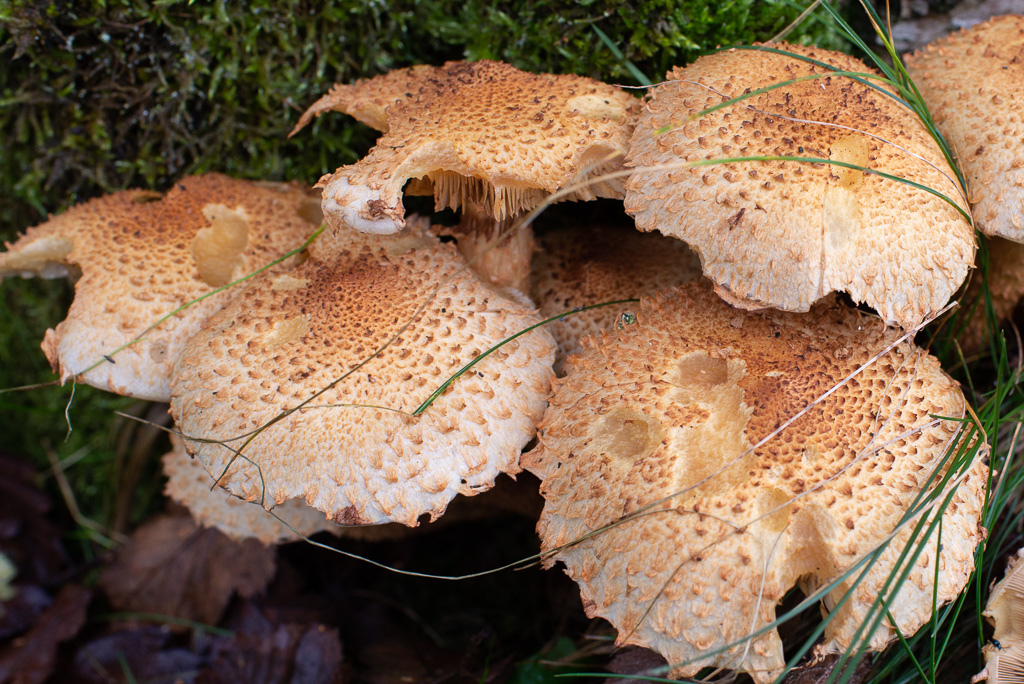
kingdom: Fungi
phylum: Basidiomycota
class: Agaricomycetes
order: Agaricales
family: Strophariaceae
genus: Pholiota
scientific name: Pholiota squarrosa
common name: krumskællet skælhat
